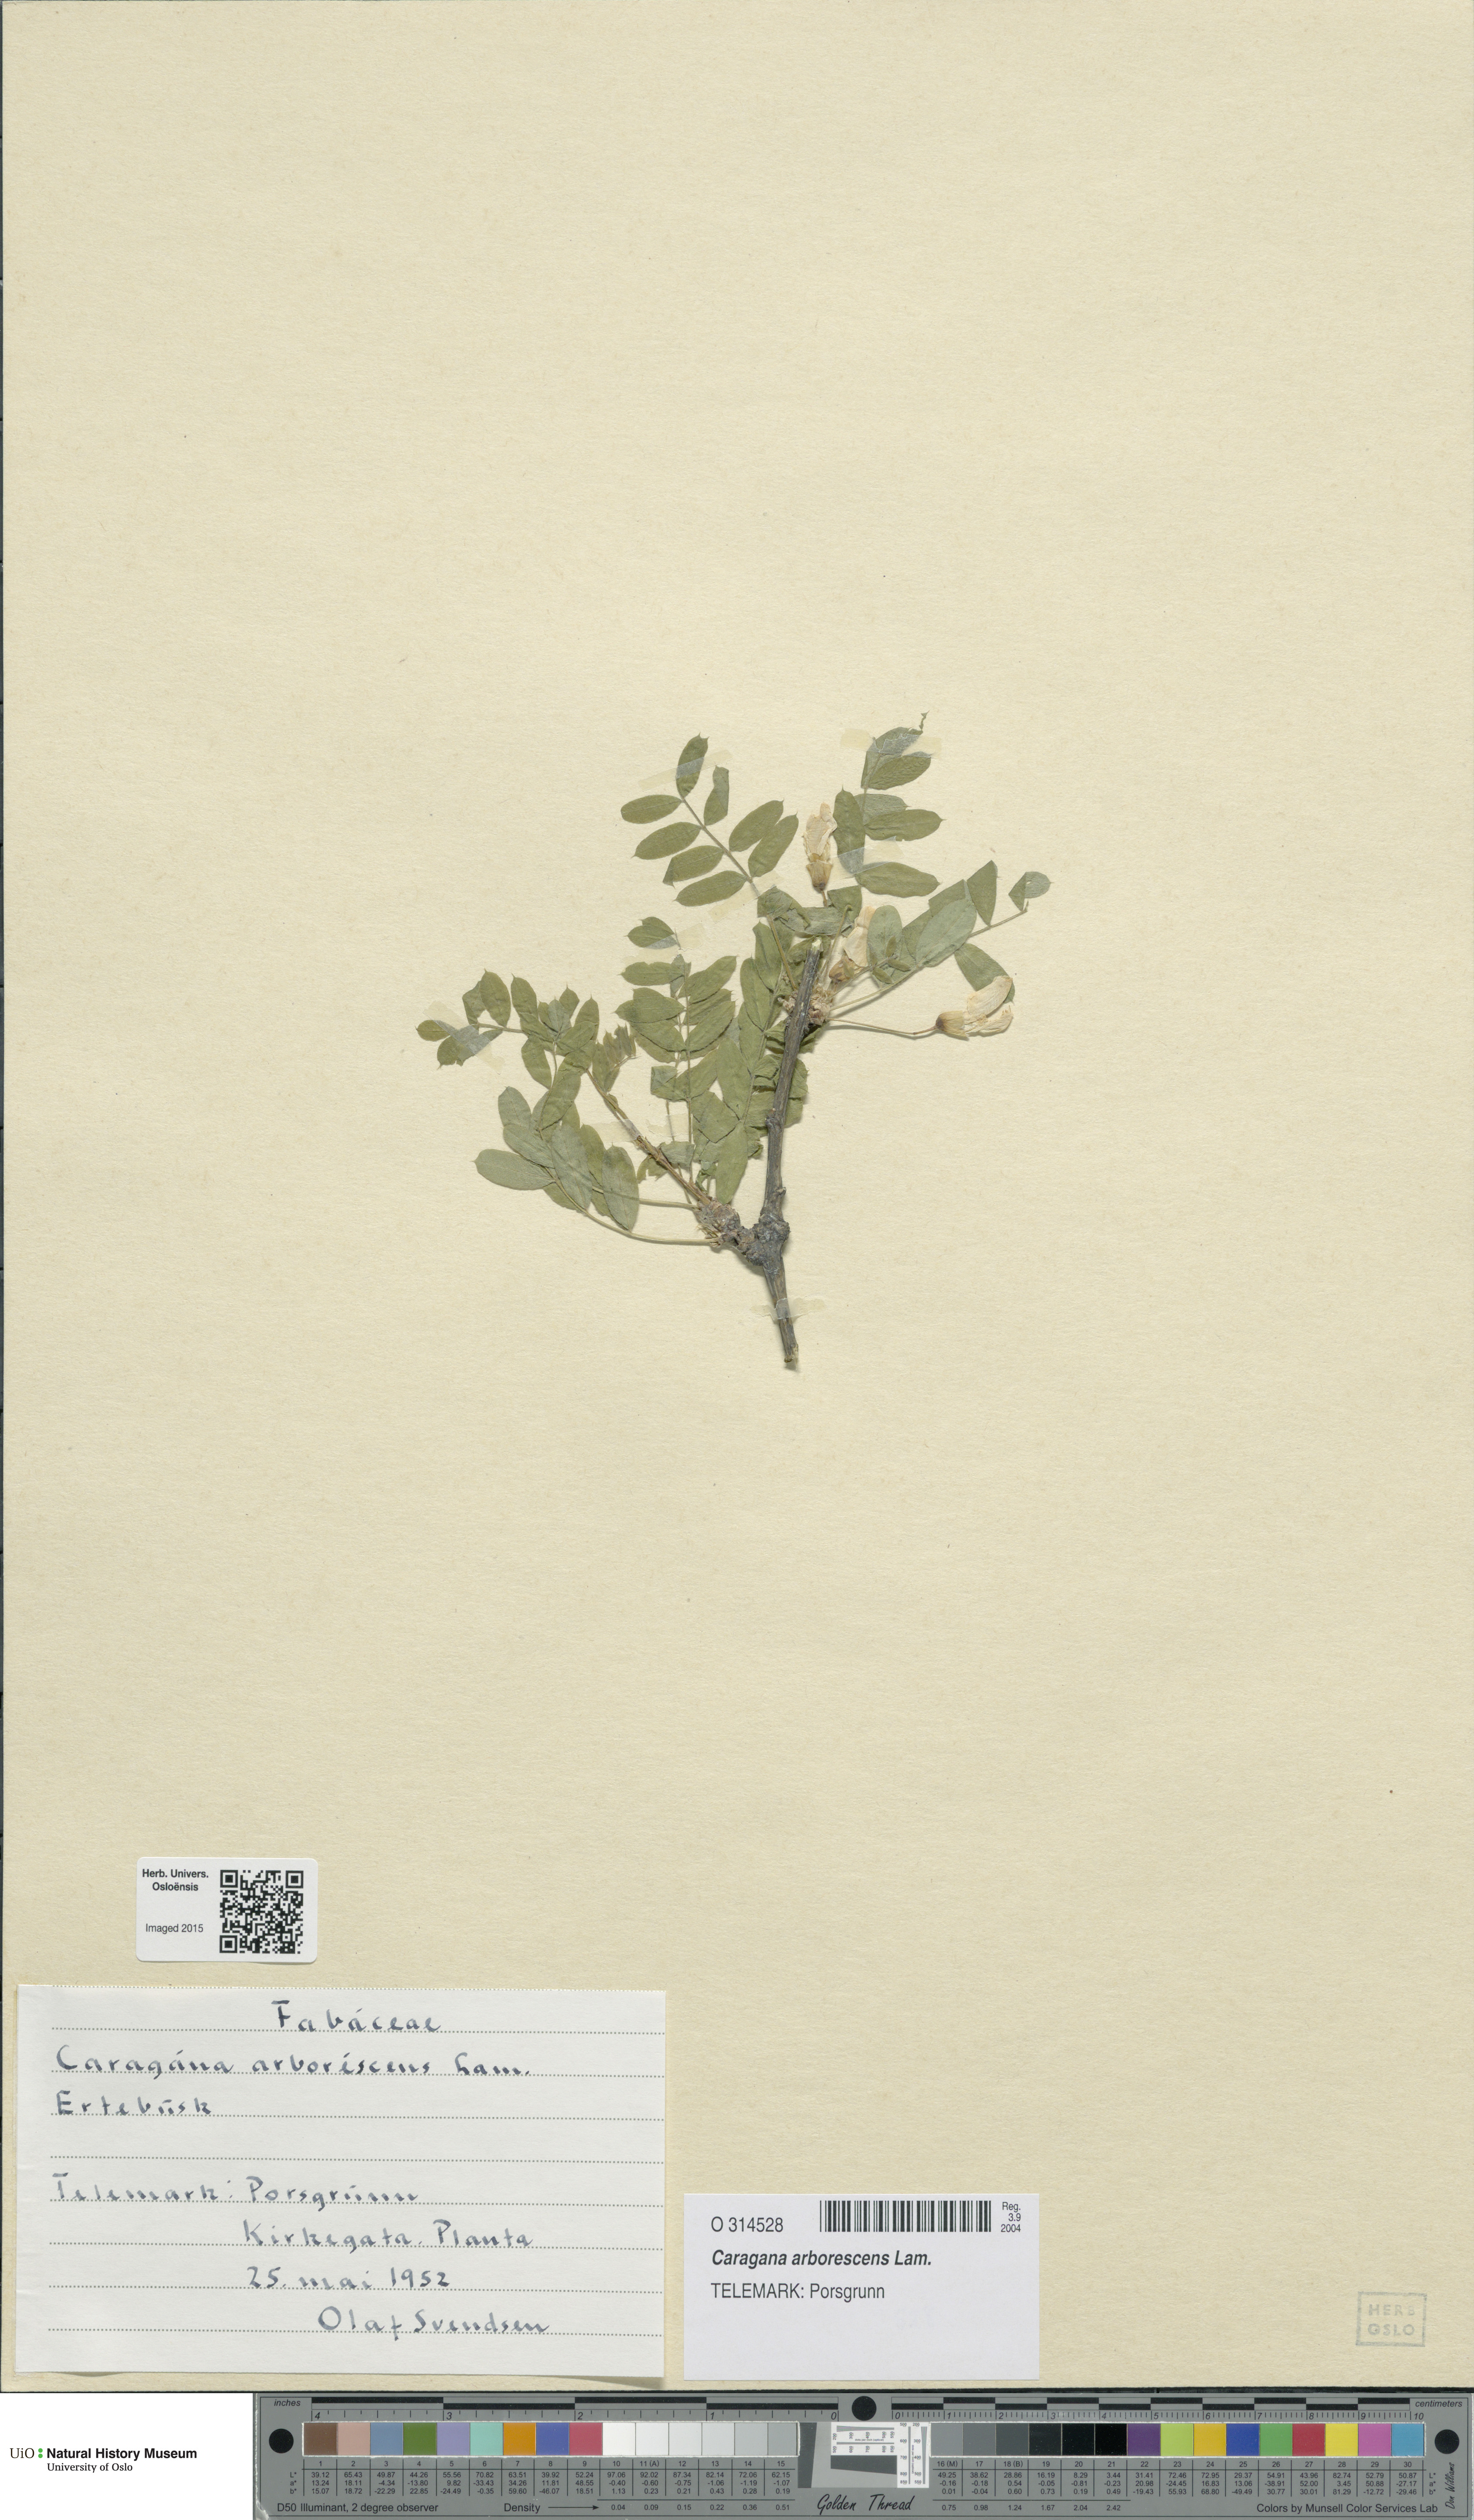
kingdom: Plantae
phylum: Tracheophyta
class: Magnoliopsida
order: Fabales
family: Fabaceae
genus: Caragana
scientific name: Caragana arborescens
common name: Siberian peashrub
